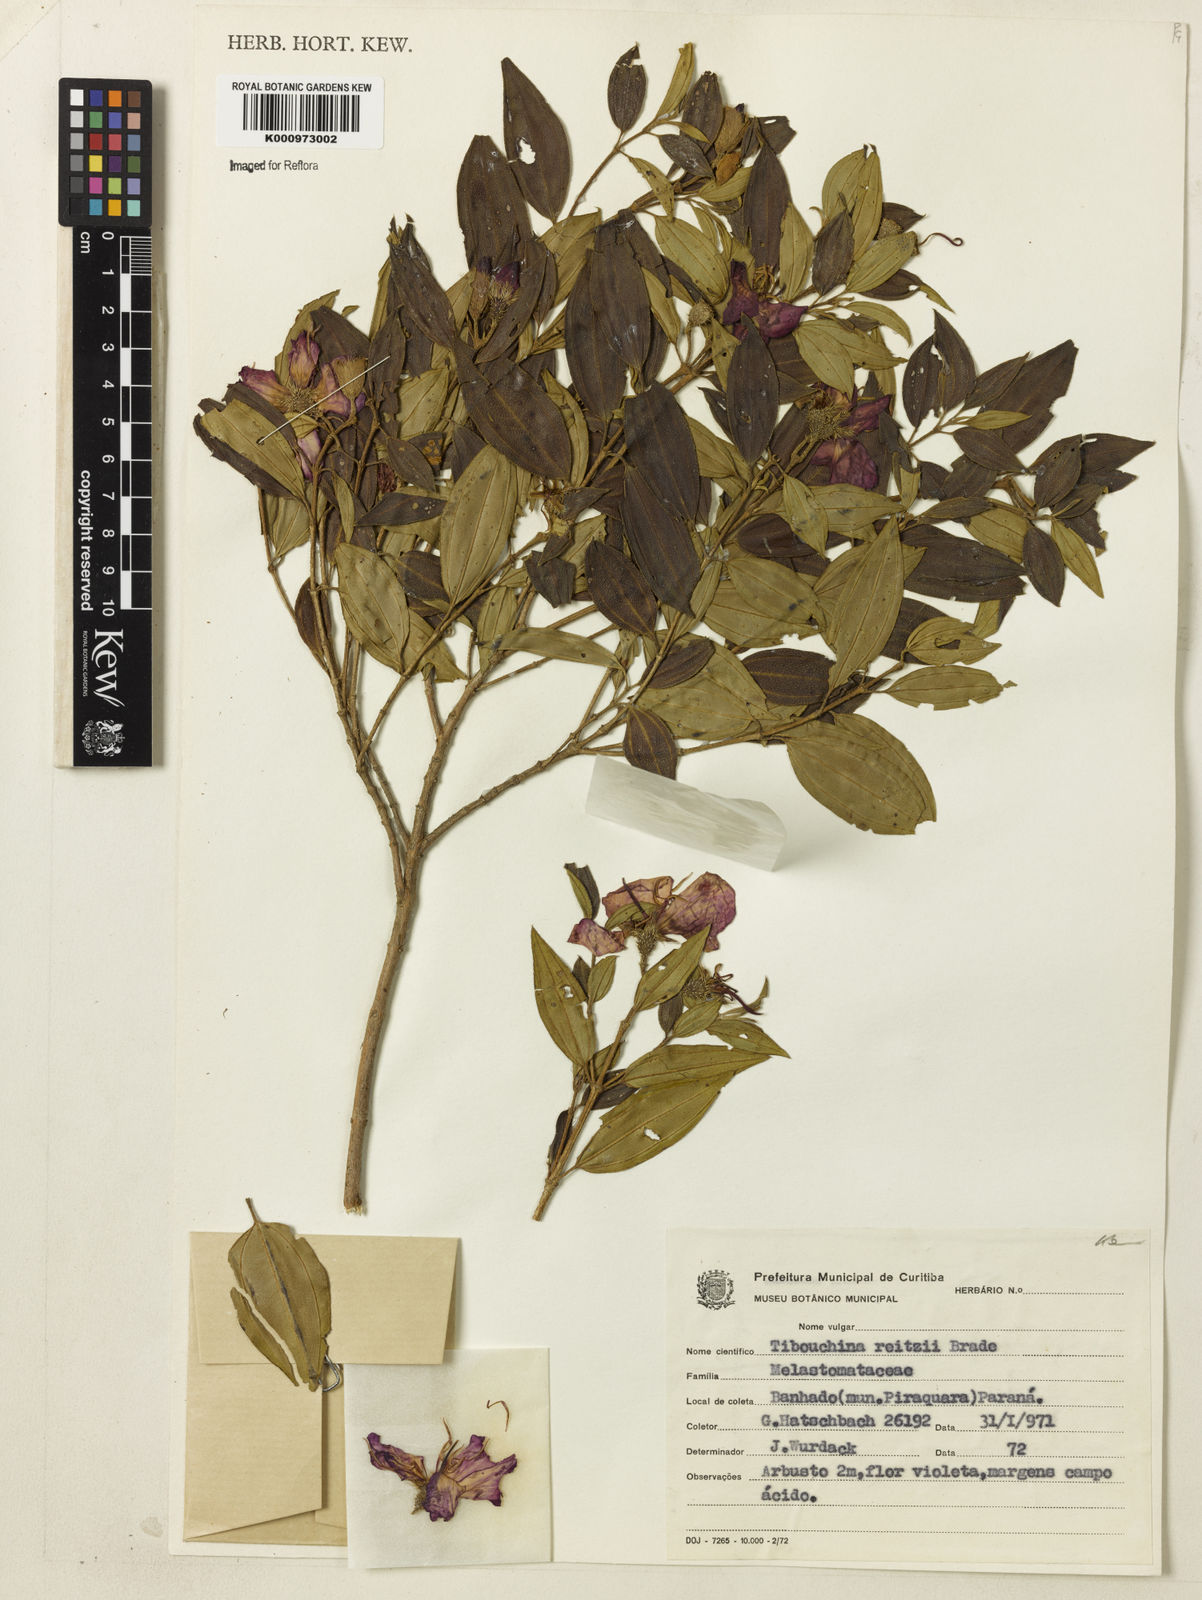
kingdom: Plantae
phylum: Tracheophyta
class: Magnoliopsida
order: Myrtales
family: Melastomataceae
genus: Pleroma
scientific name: Pleroma reitzii
